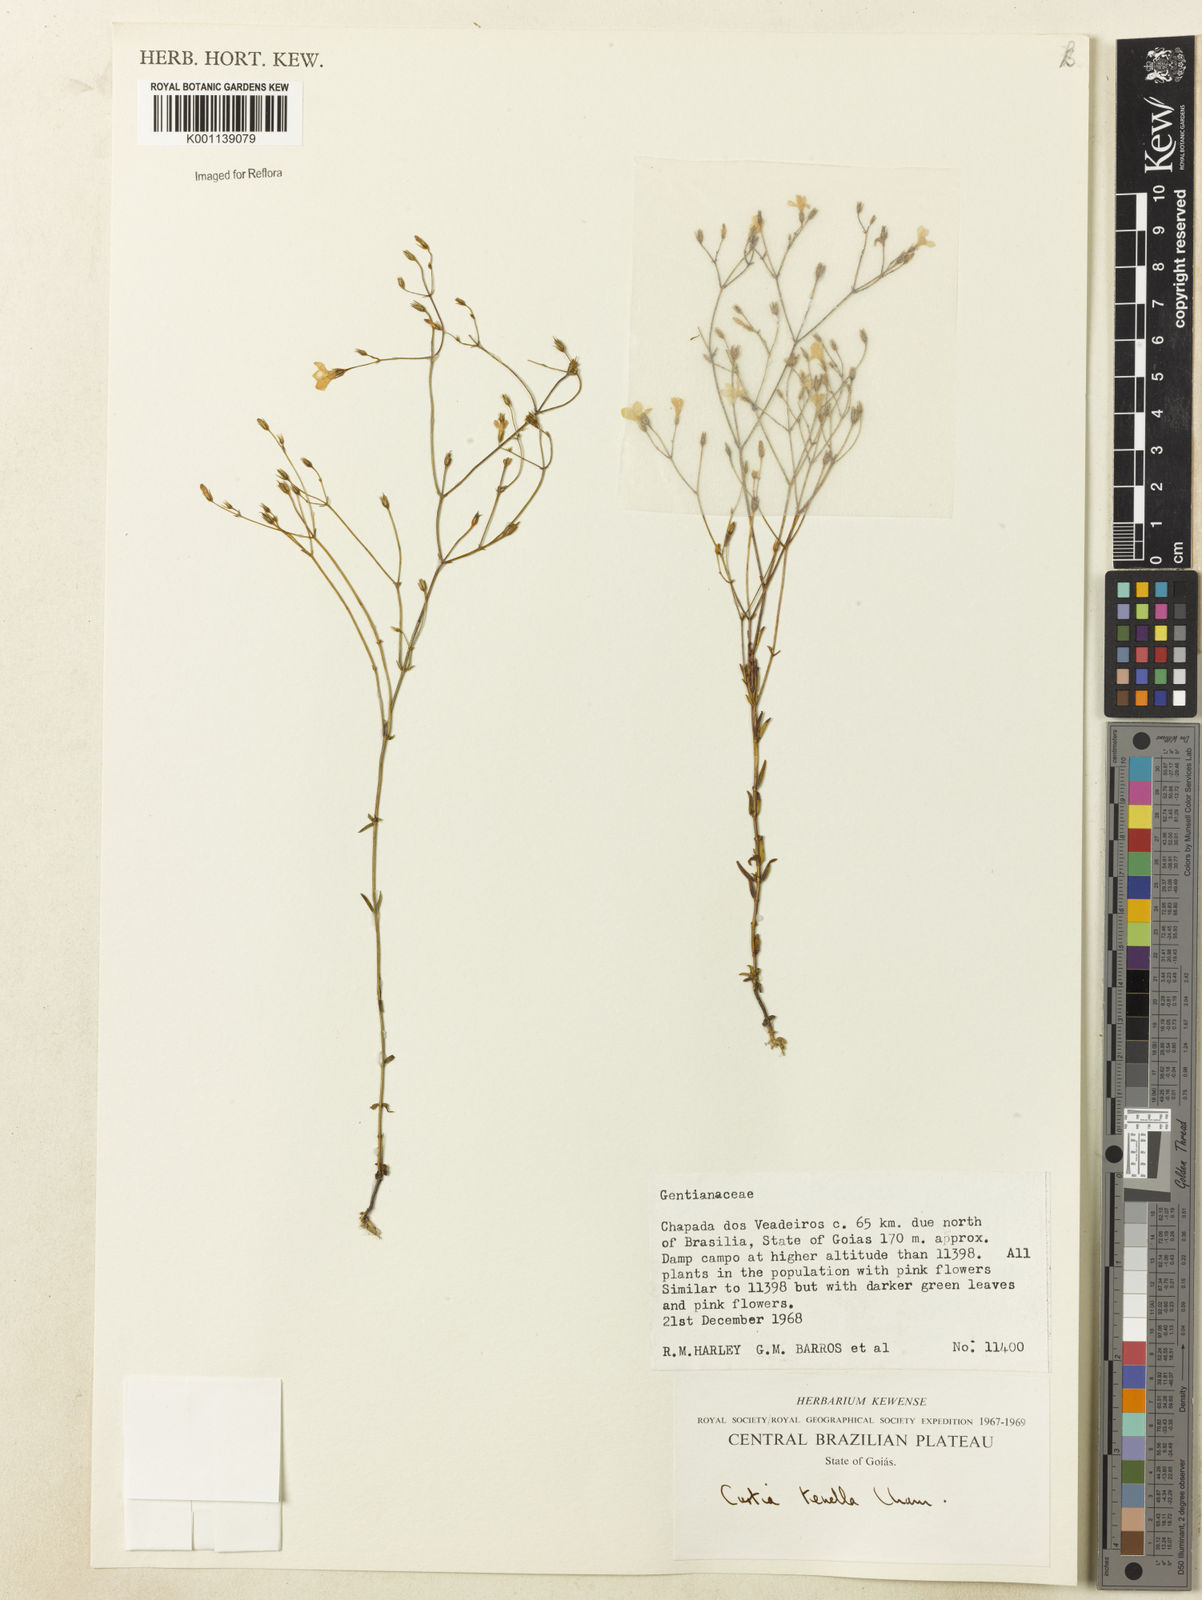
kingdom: Plantae
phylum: Tracheophyta
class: Magnoliopsida
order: Gentianales
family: Gentianaceae
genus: Curtia
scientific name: Curtia tenella
